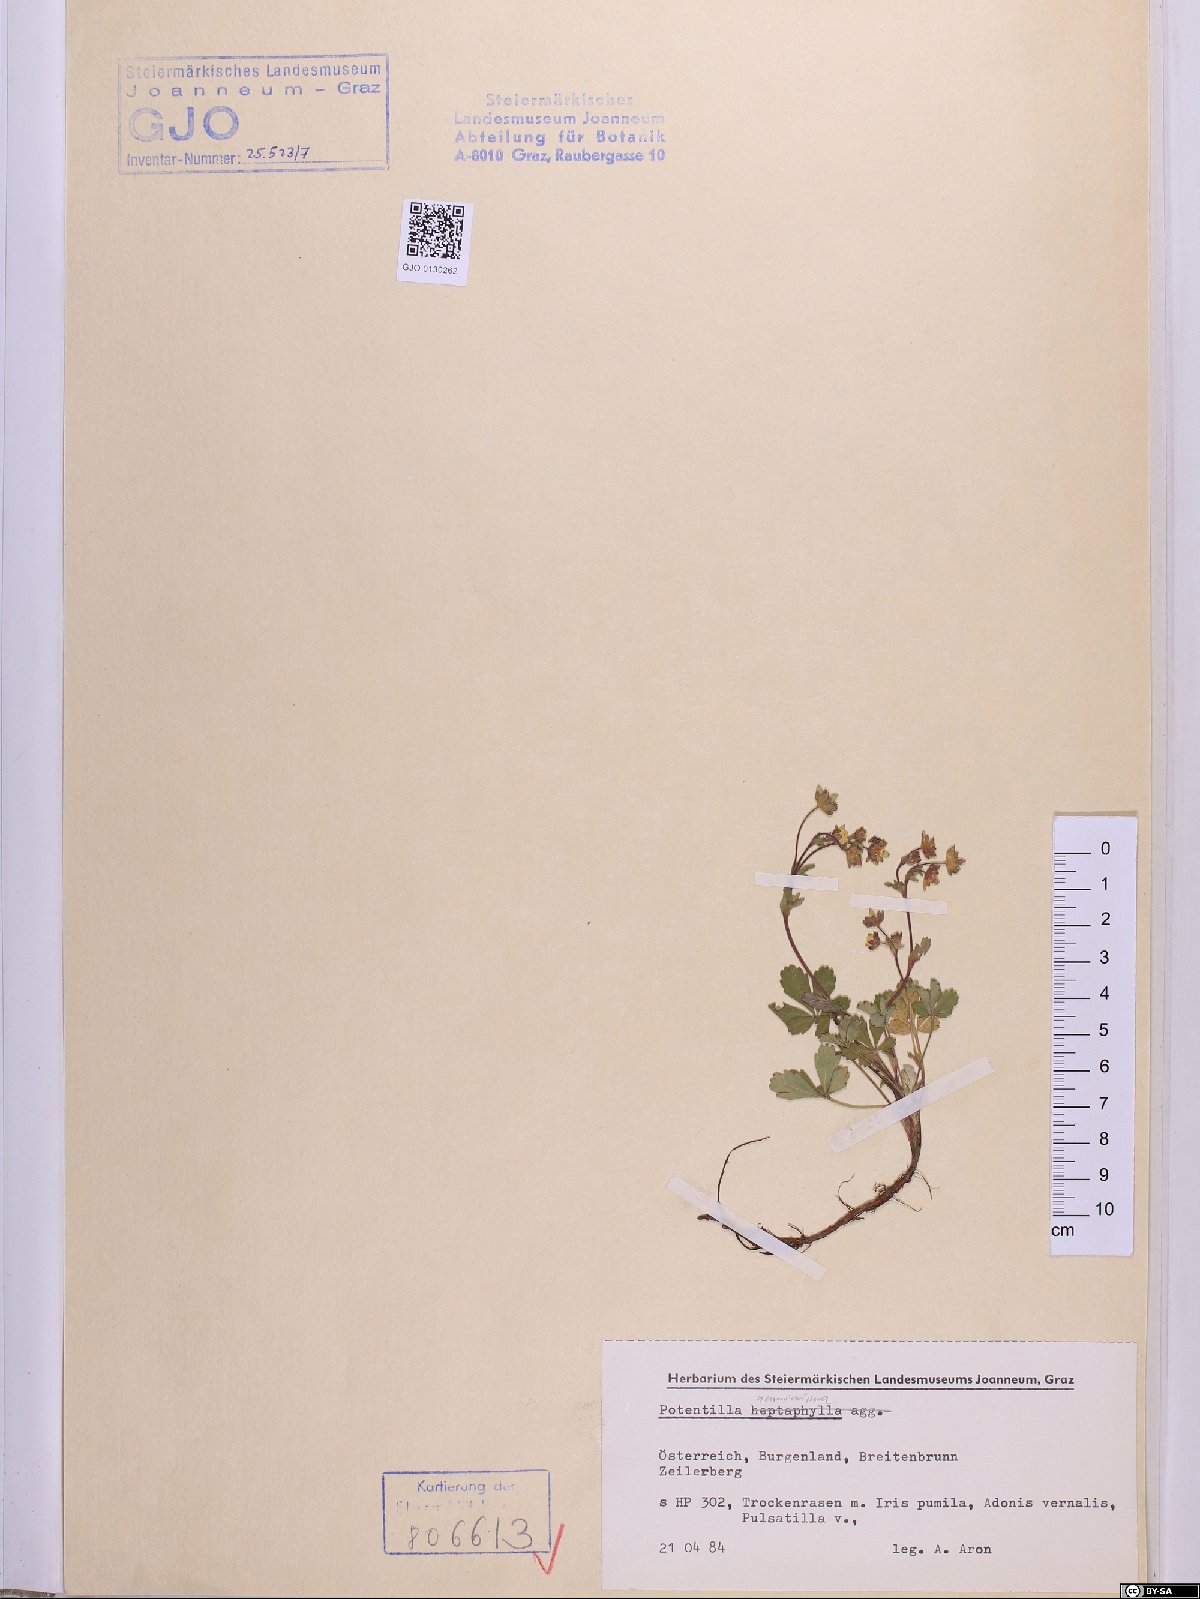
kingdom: Plantae
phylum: Tracheophyta
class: Magnoliopsida
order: Rosales
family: Rosaceae
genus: Potentilla
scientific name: Potentilla verna
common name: Spring cinquefoil
